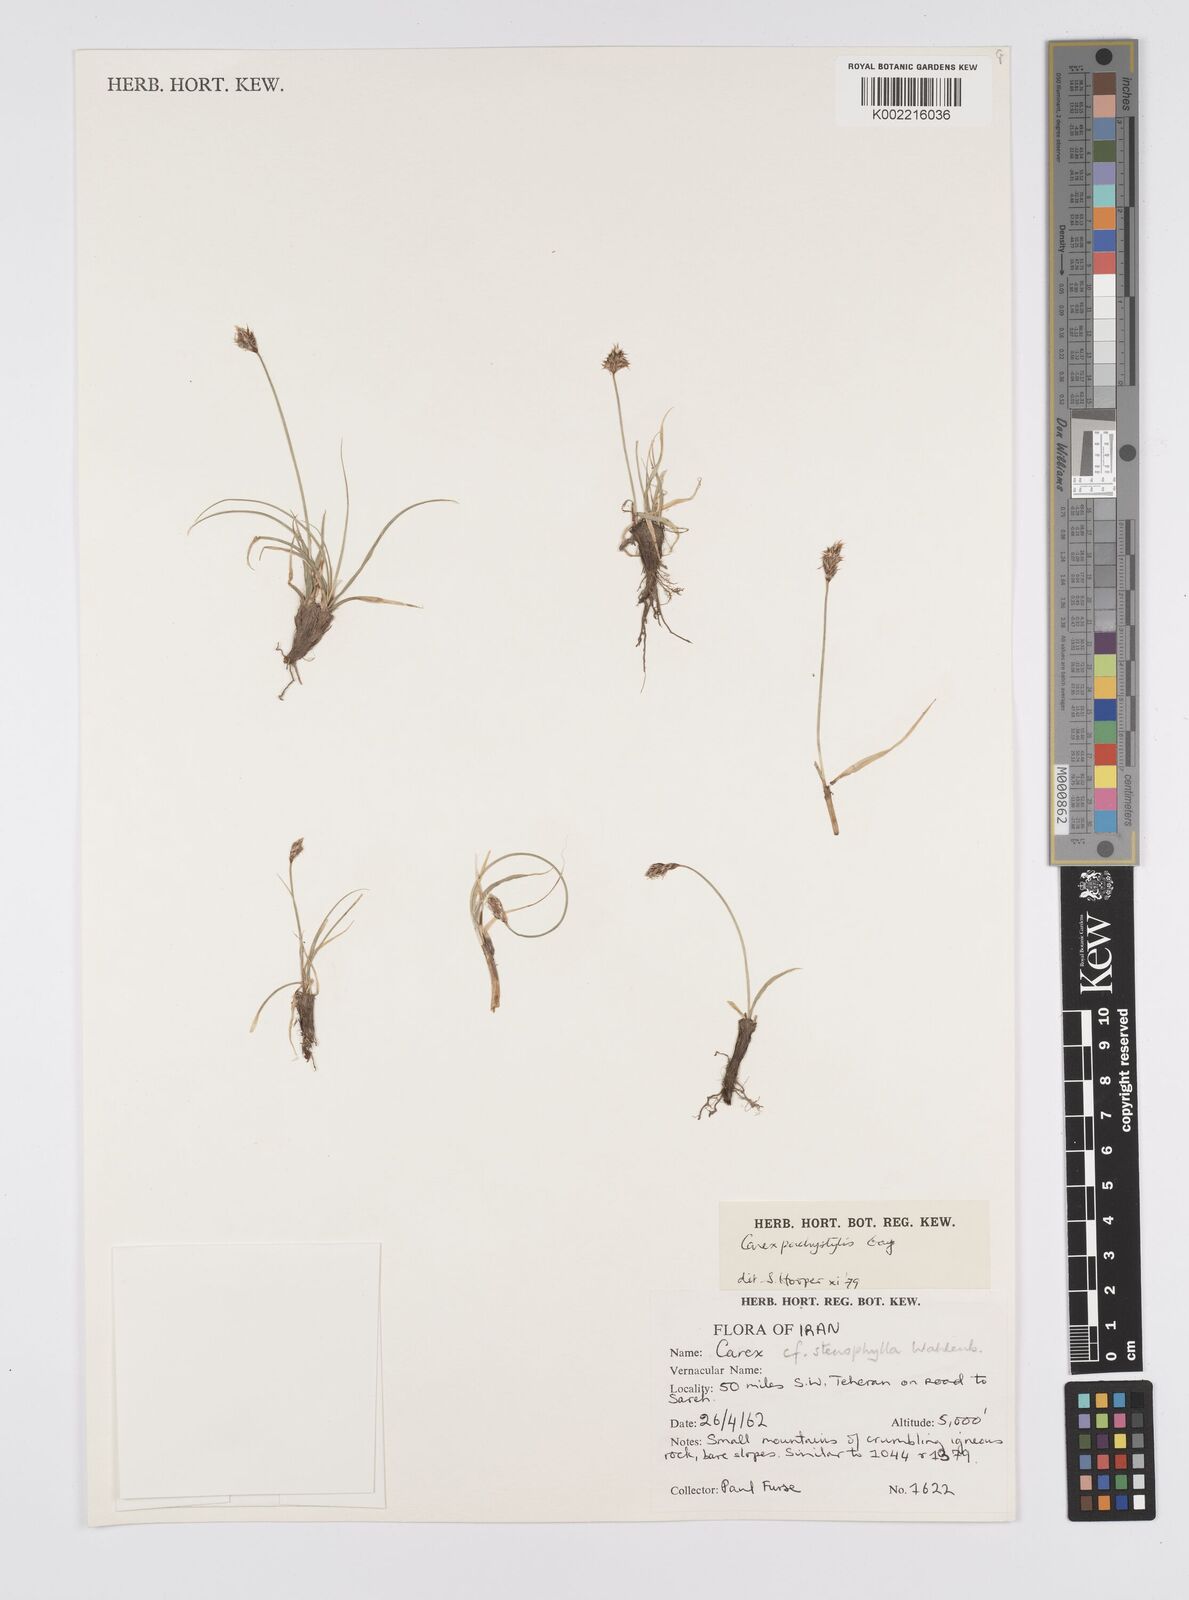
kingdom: Plantae
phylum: Tracheophyta
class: Liliopsida
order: Poales
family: Cyperaceae
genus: Carex
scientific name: Carex pachystylis
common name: Thick-stem sedge
